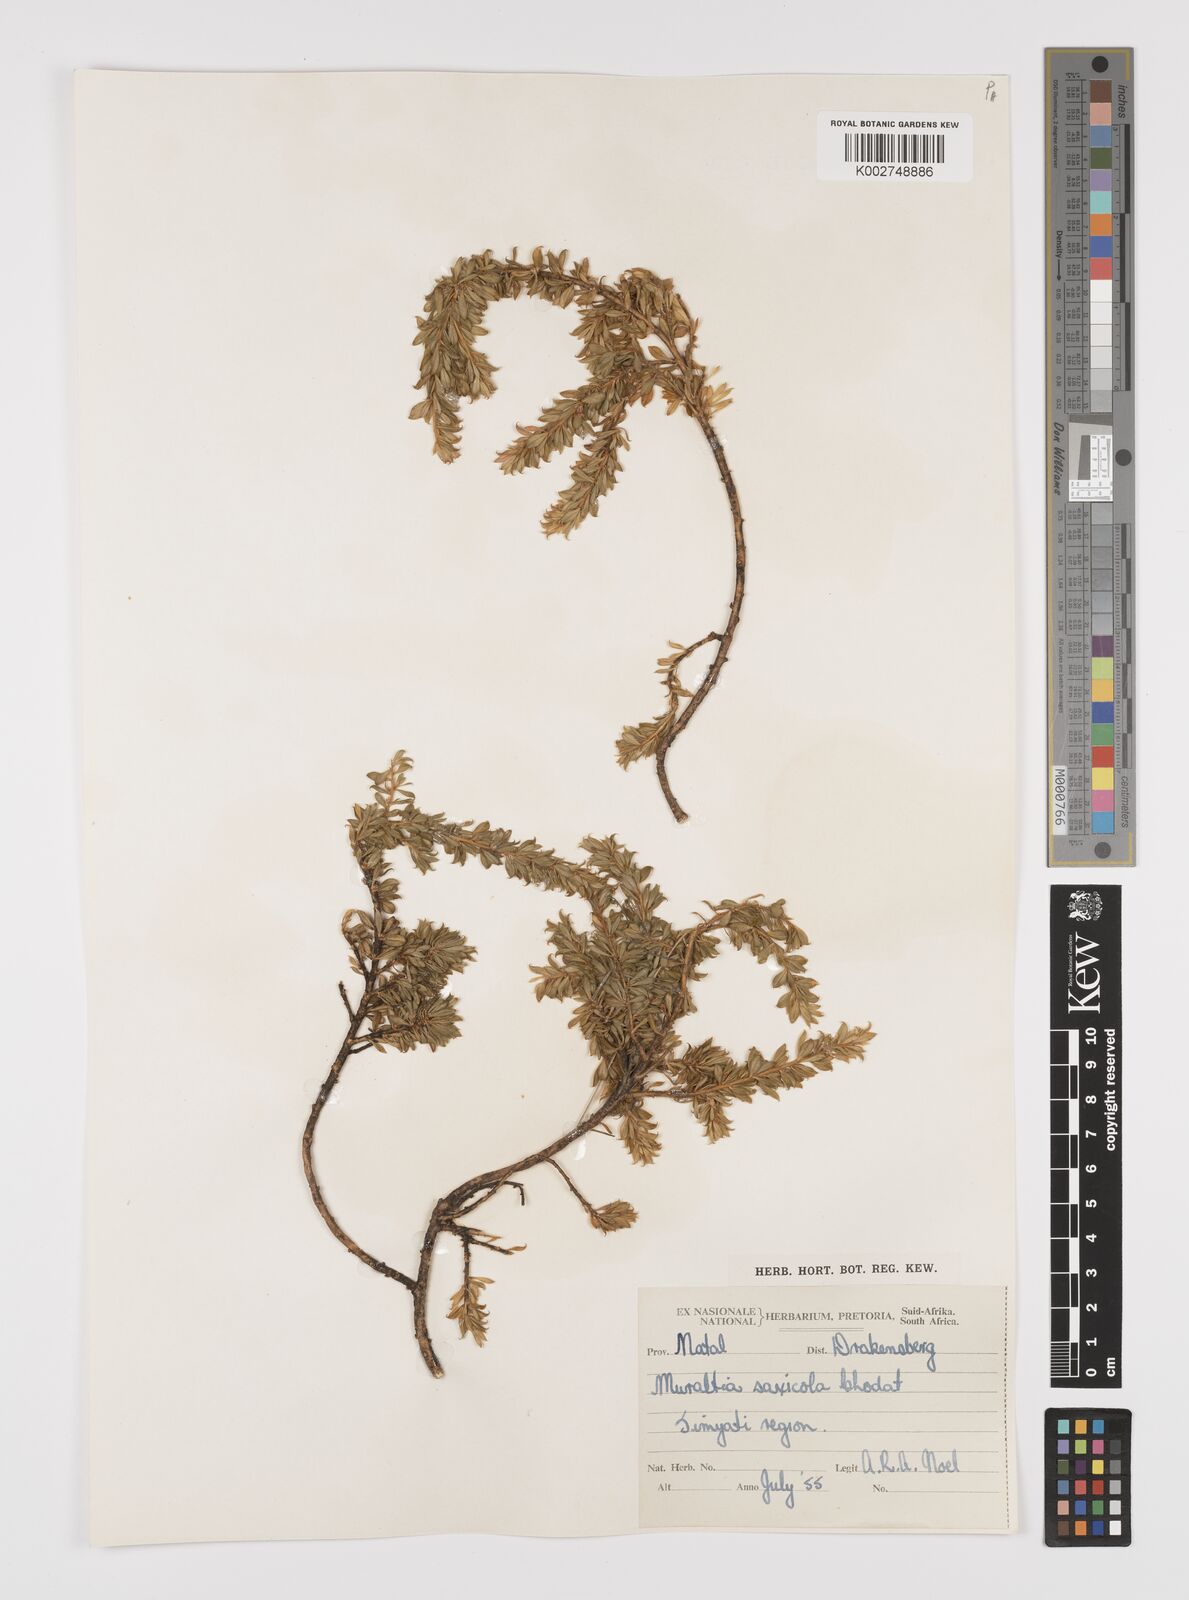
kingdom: Plantae
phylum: Tracheophyta
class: Magnoliopsida
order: Fabales
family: Polygalaceae
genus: Muraltia
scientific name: Muraltia saxicola
